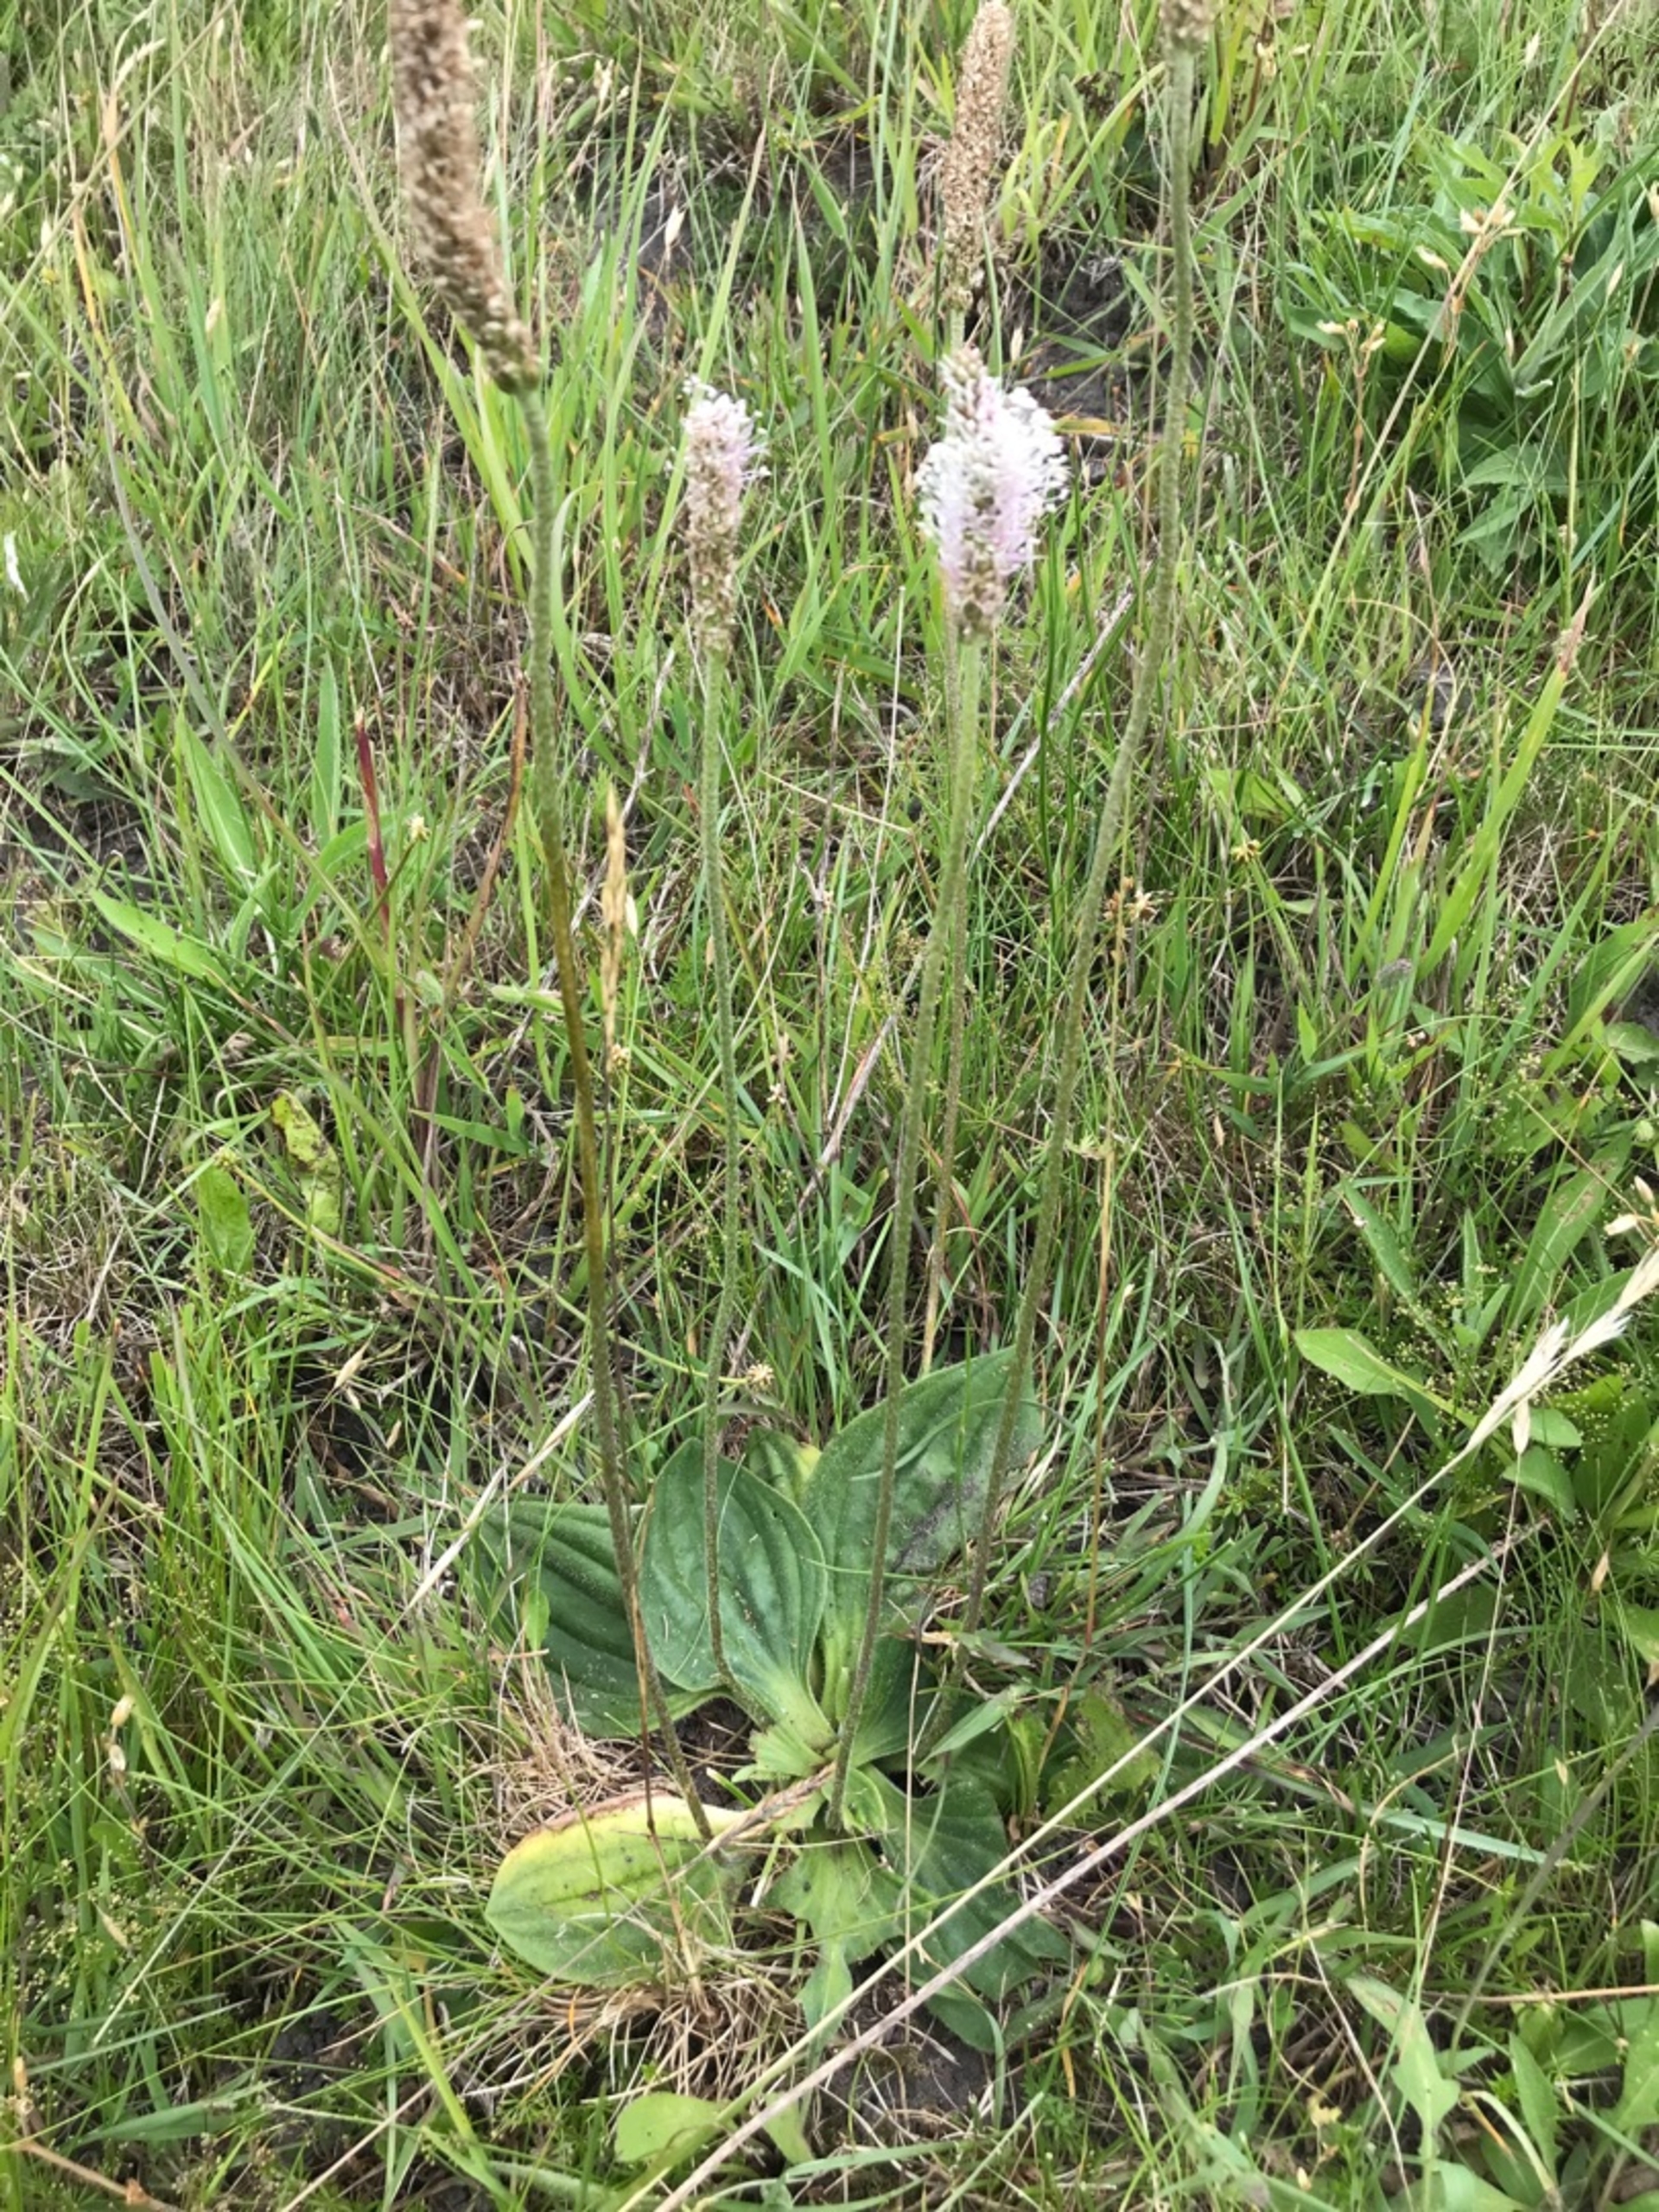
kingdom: Plantae
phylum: Tracheophyta
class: Magnoliopsida
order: Lamiales
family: Plantaginaceae
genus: Plantago
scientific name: Plantago media
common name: Dunet vejbred
